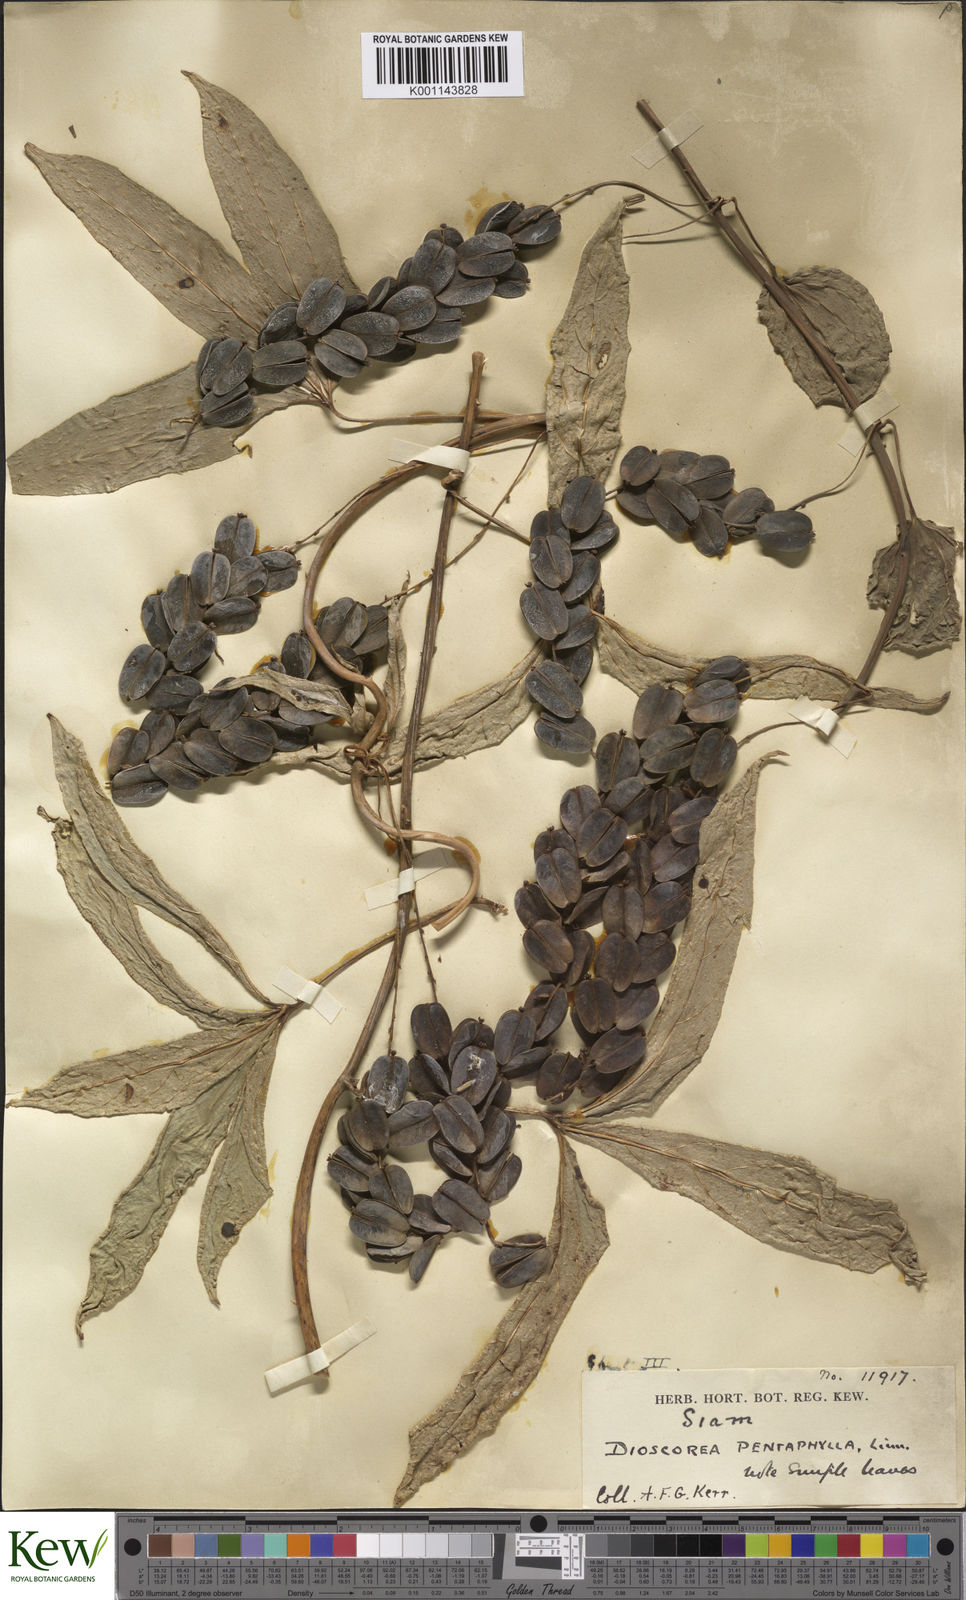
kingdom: Plantae
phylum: Tracheophyta
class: Liliopsida
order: Dioscoreales
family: Dioscoreaceae
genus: Dioscorea
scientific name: Dioscorea pentaphylla
